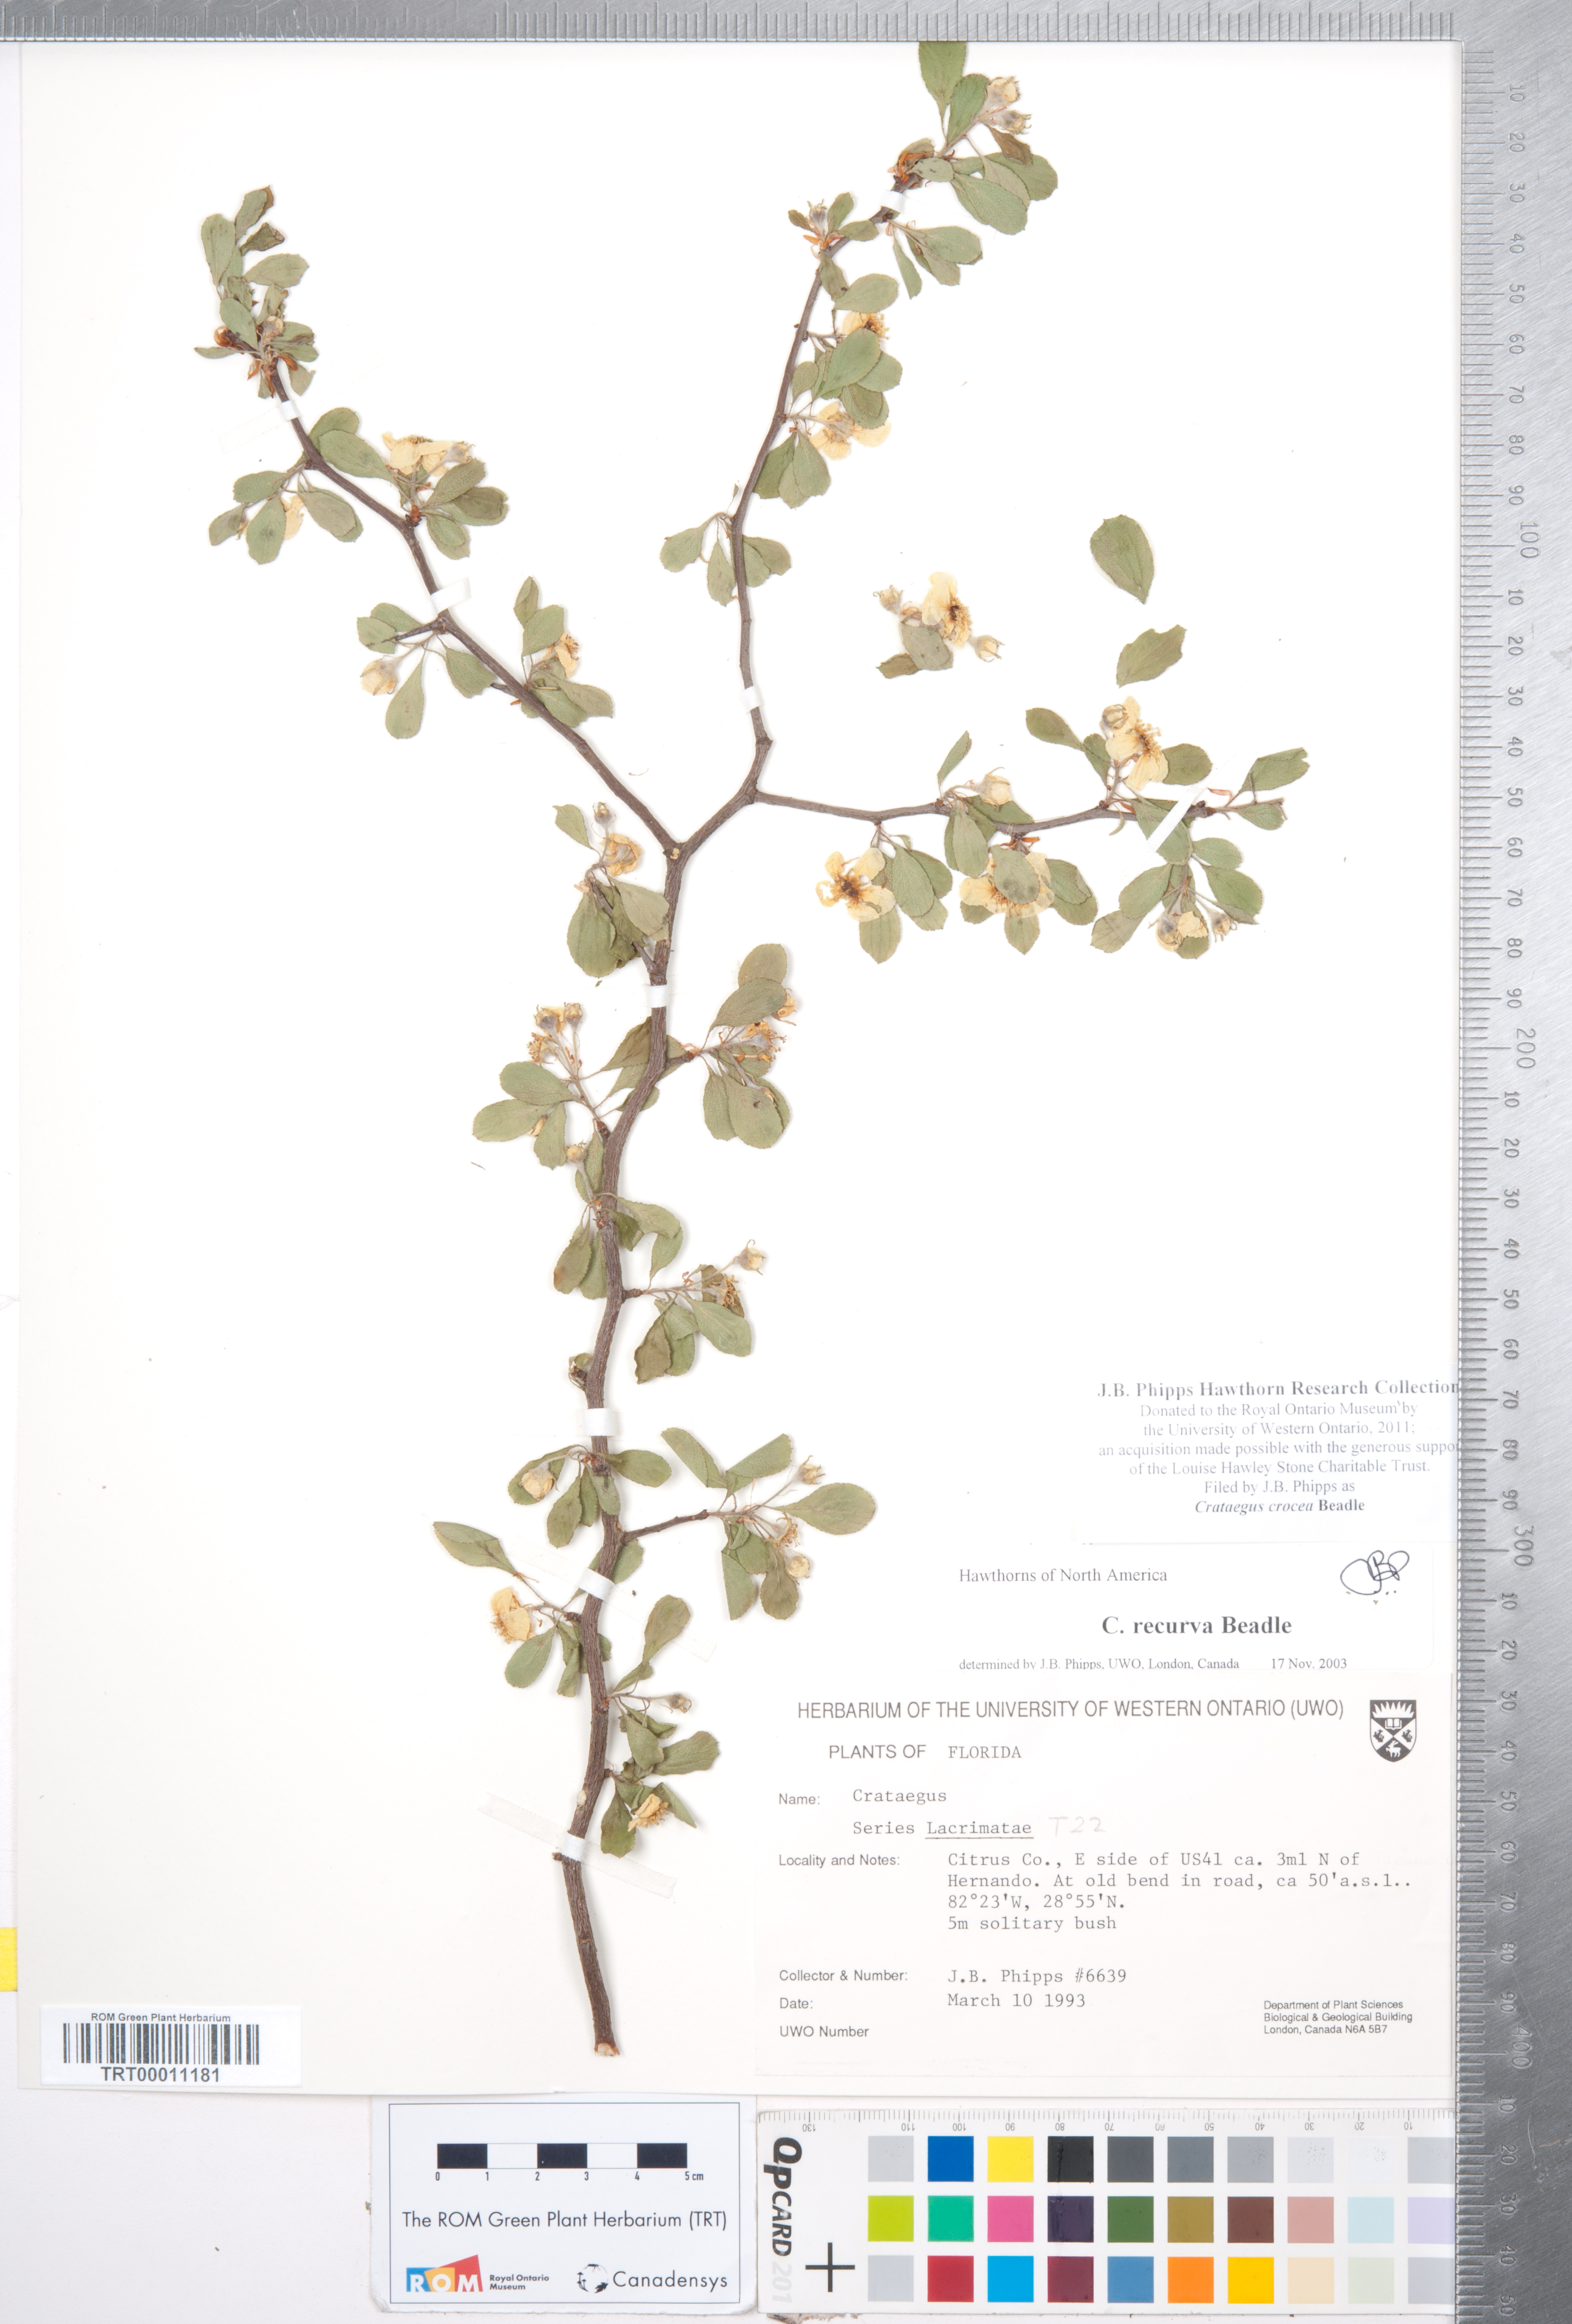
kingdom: Plantae
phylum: Tracheophyta
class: Magnoliopsida
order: Rosales
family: Rosaceae
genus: Crataegus
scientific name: Crataegus lassa
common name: Florida hawthorn
